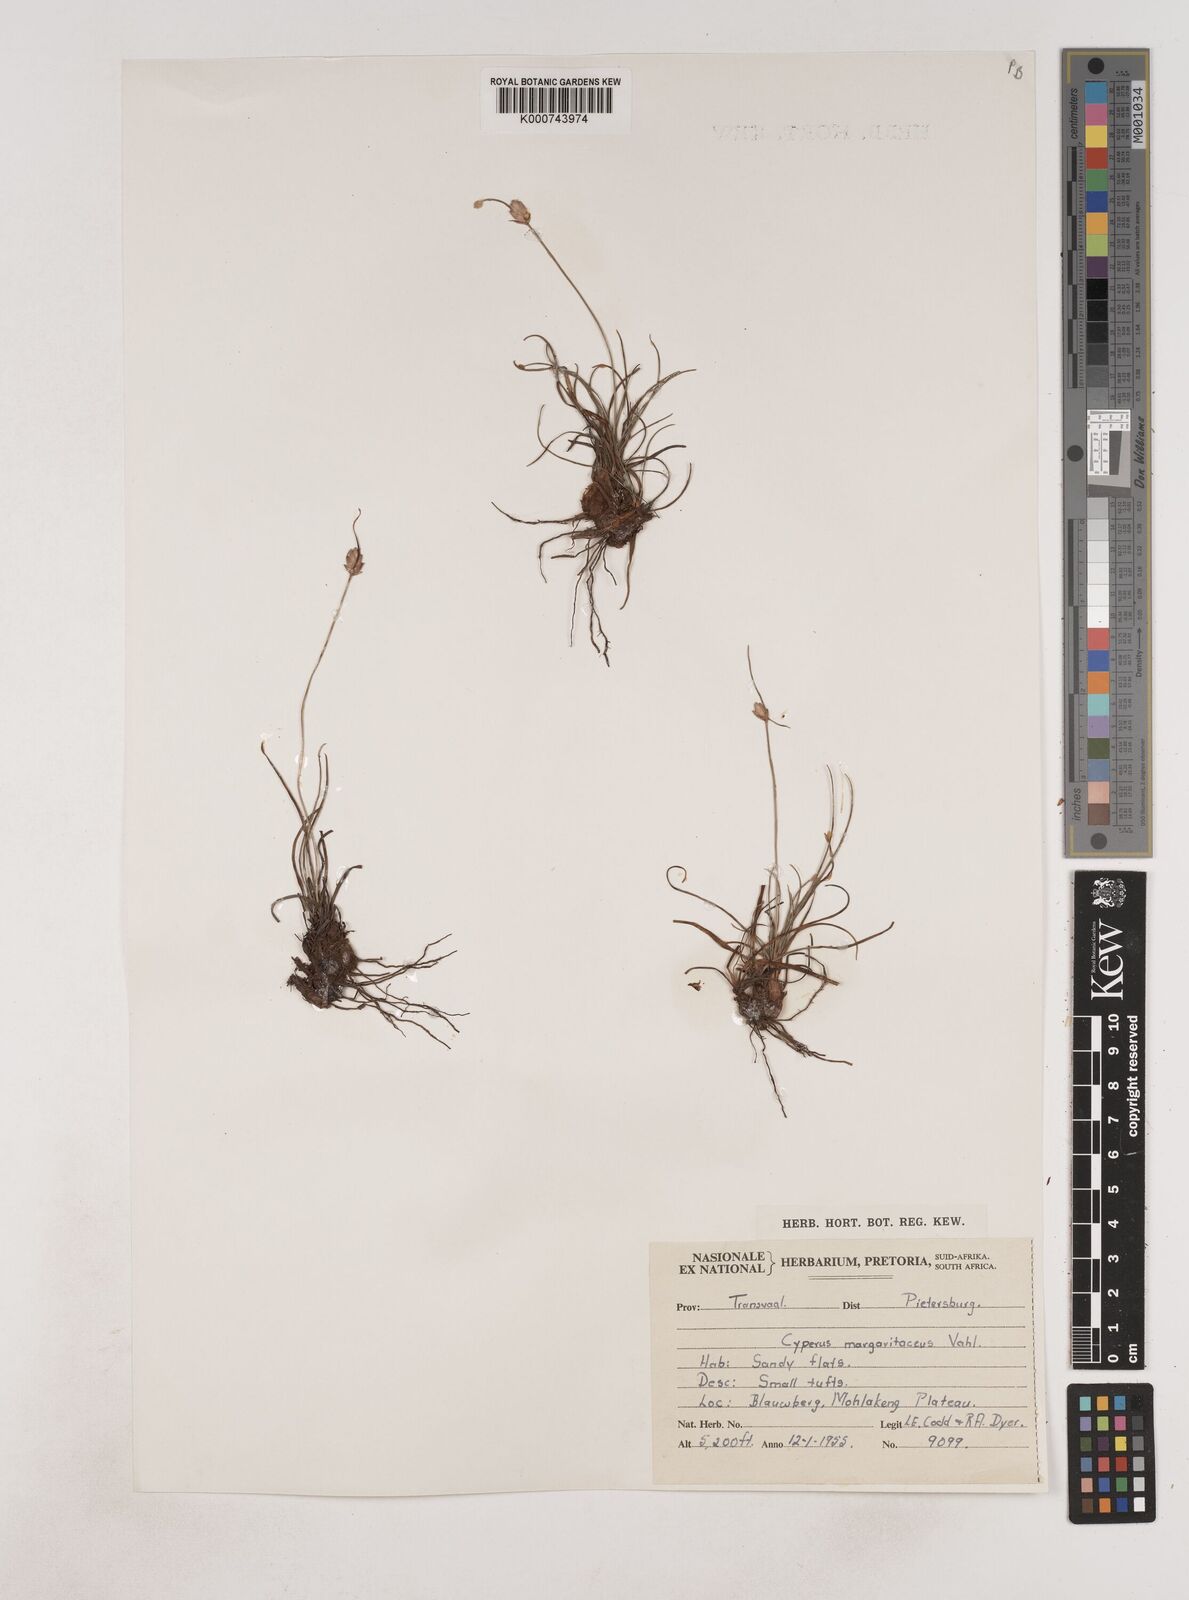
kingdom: Plantae
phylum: Tracheophyta
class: Liliopsida
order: Poales
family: Cyperaceae
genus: Cyperus
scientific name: Cyperus margaritaceus
